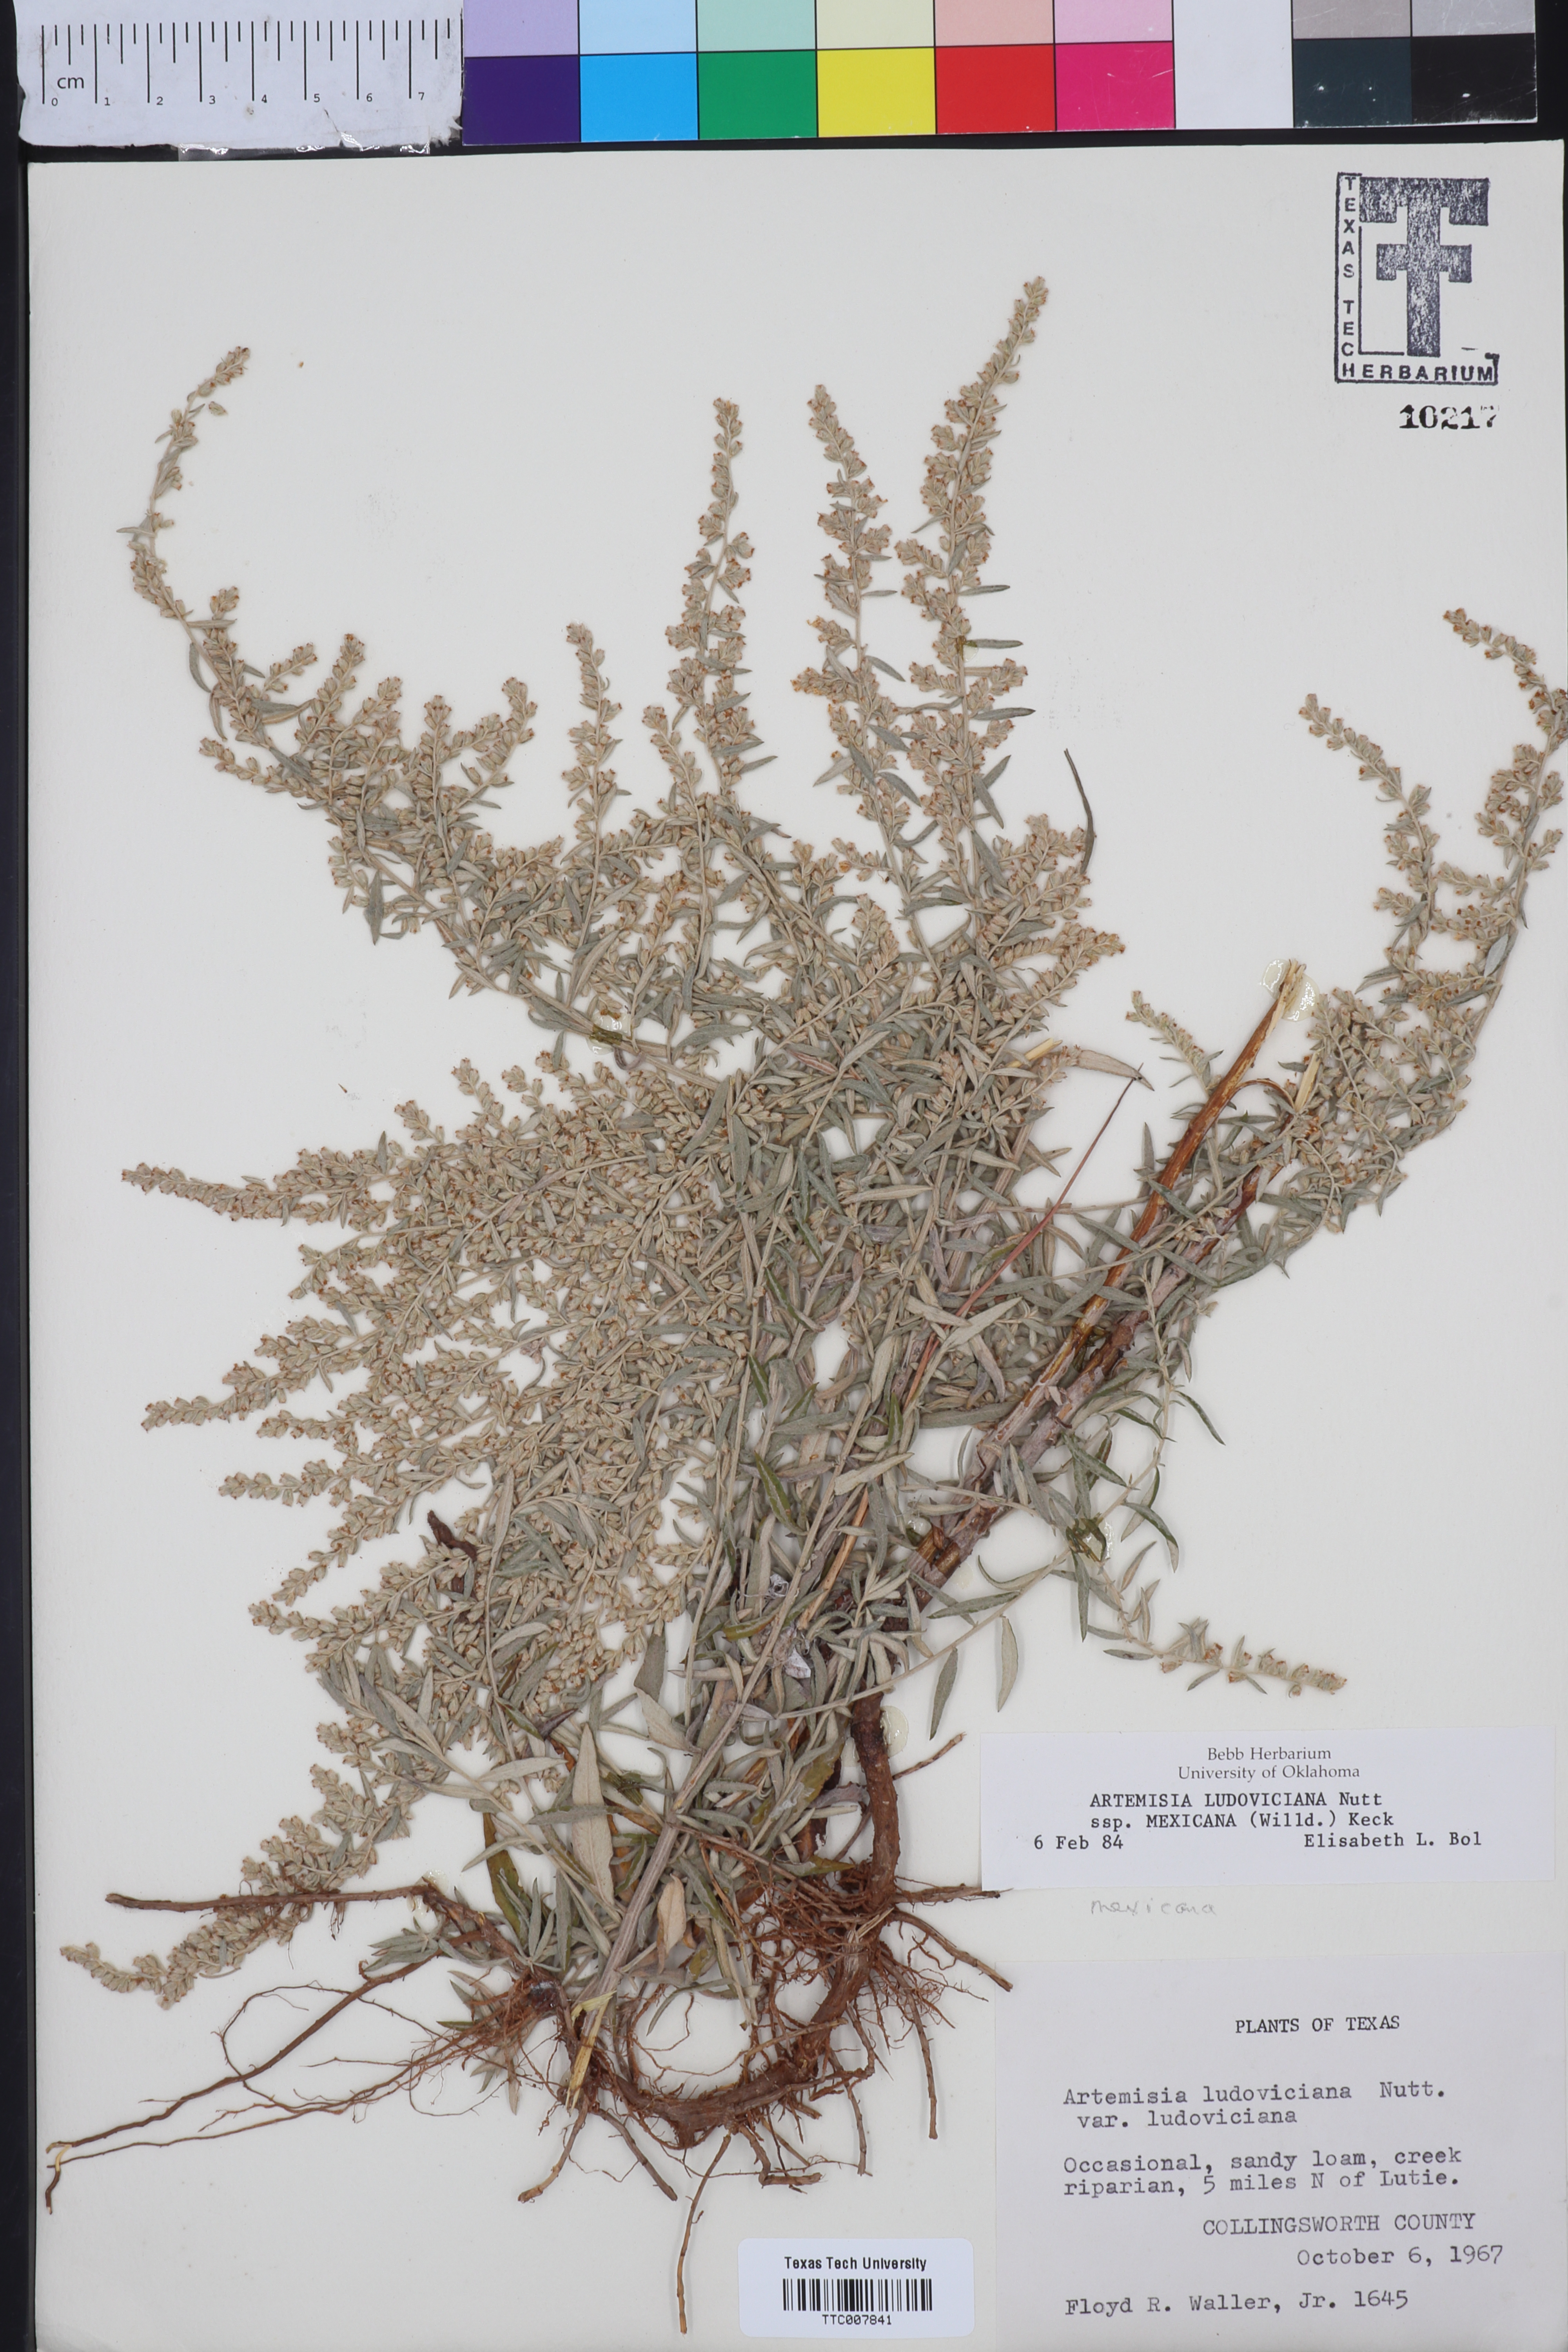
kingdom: Plantae
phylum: Tracheophyta
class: Magnoliopsida
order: Asterales
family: Asteraceae
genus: Artemisia
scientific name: Artemisia ludoviciana
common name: Western mugwort
